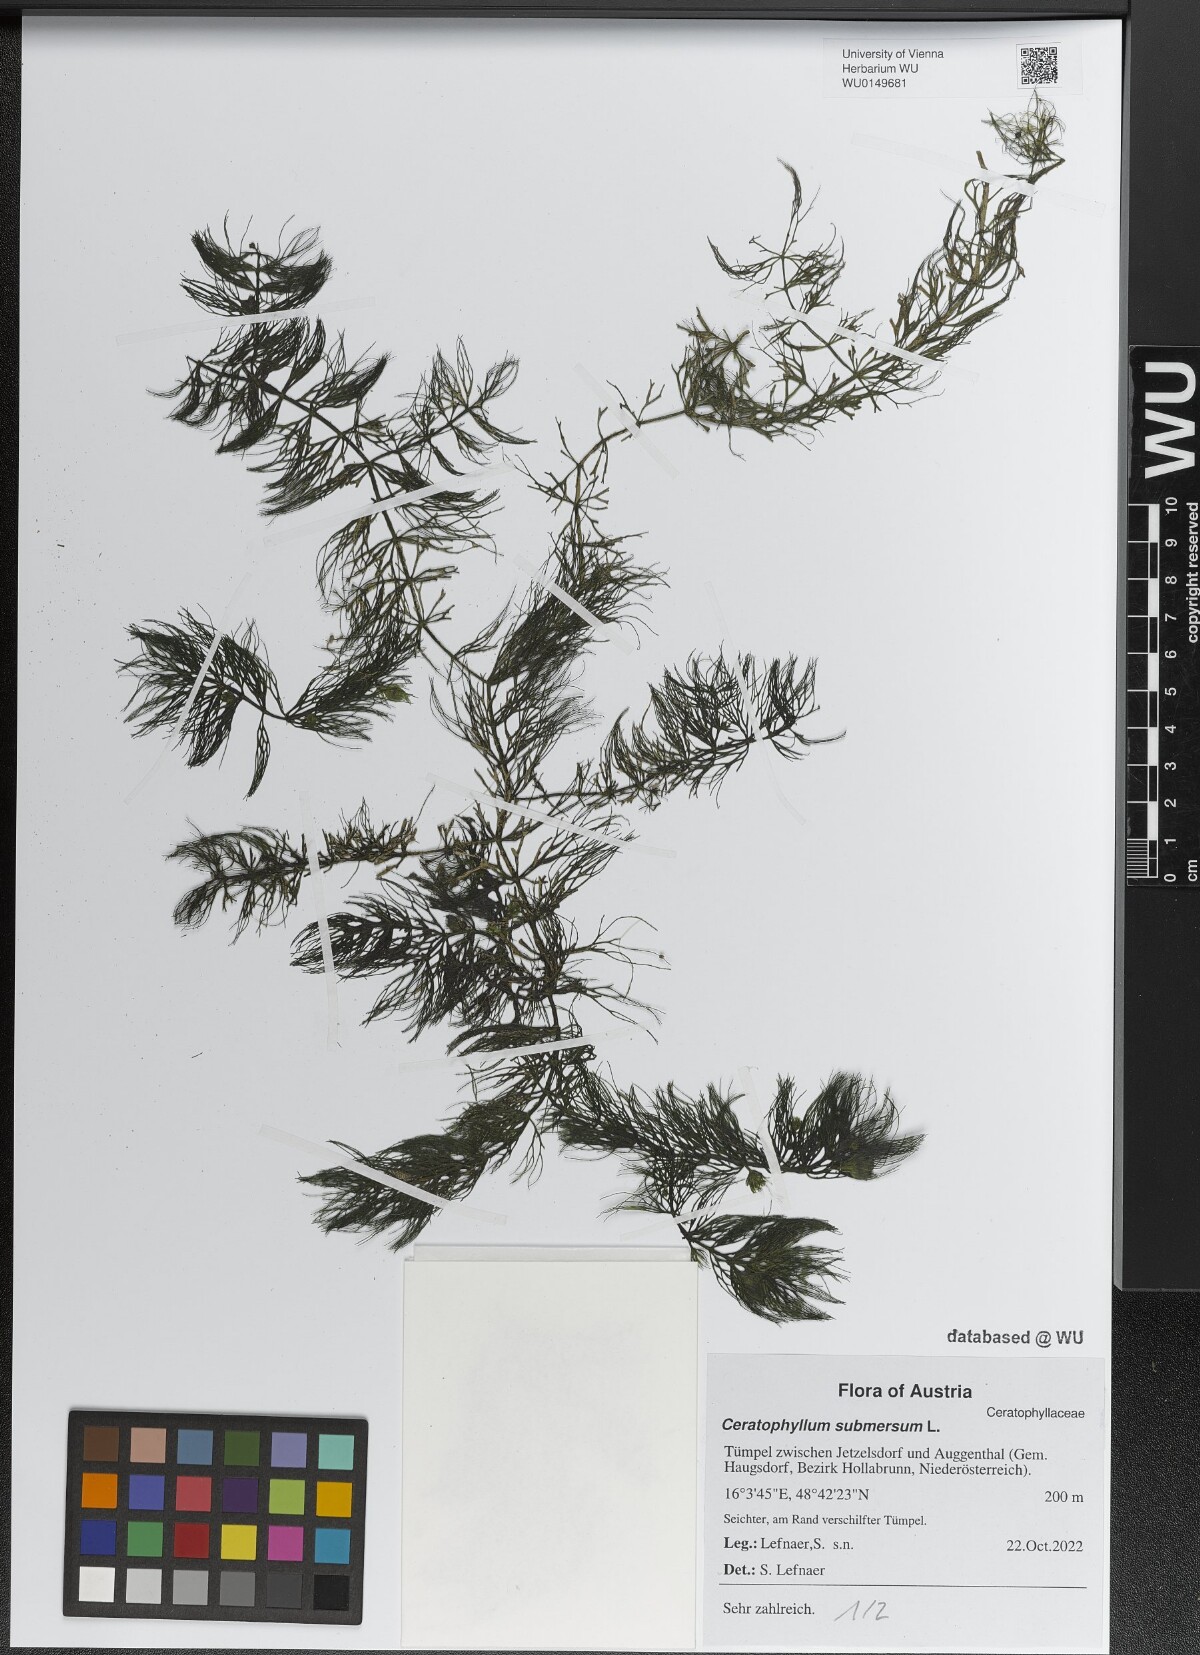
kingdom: Plantae
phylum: Tracheophyta
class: Magnoliopsida
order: Ceratophyllales
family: Ceratophyllaceae
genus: Ceratophyllum
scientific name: Ceratophyllum submersum
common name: Soft hornwort
